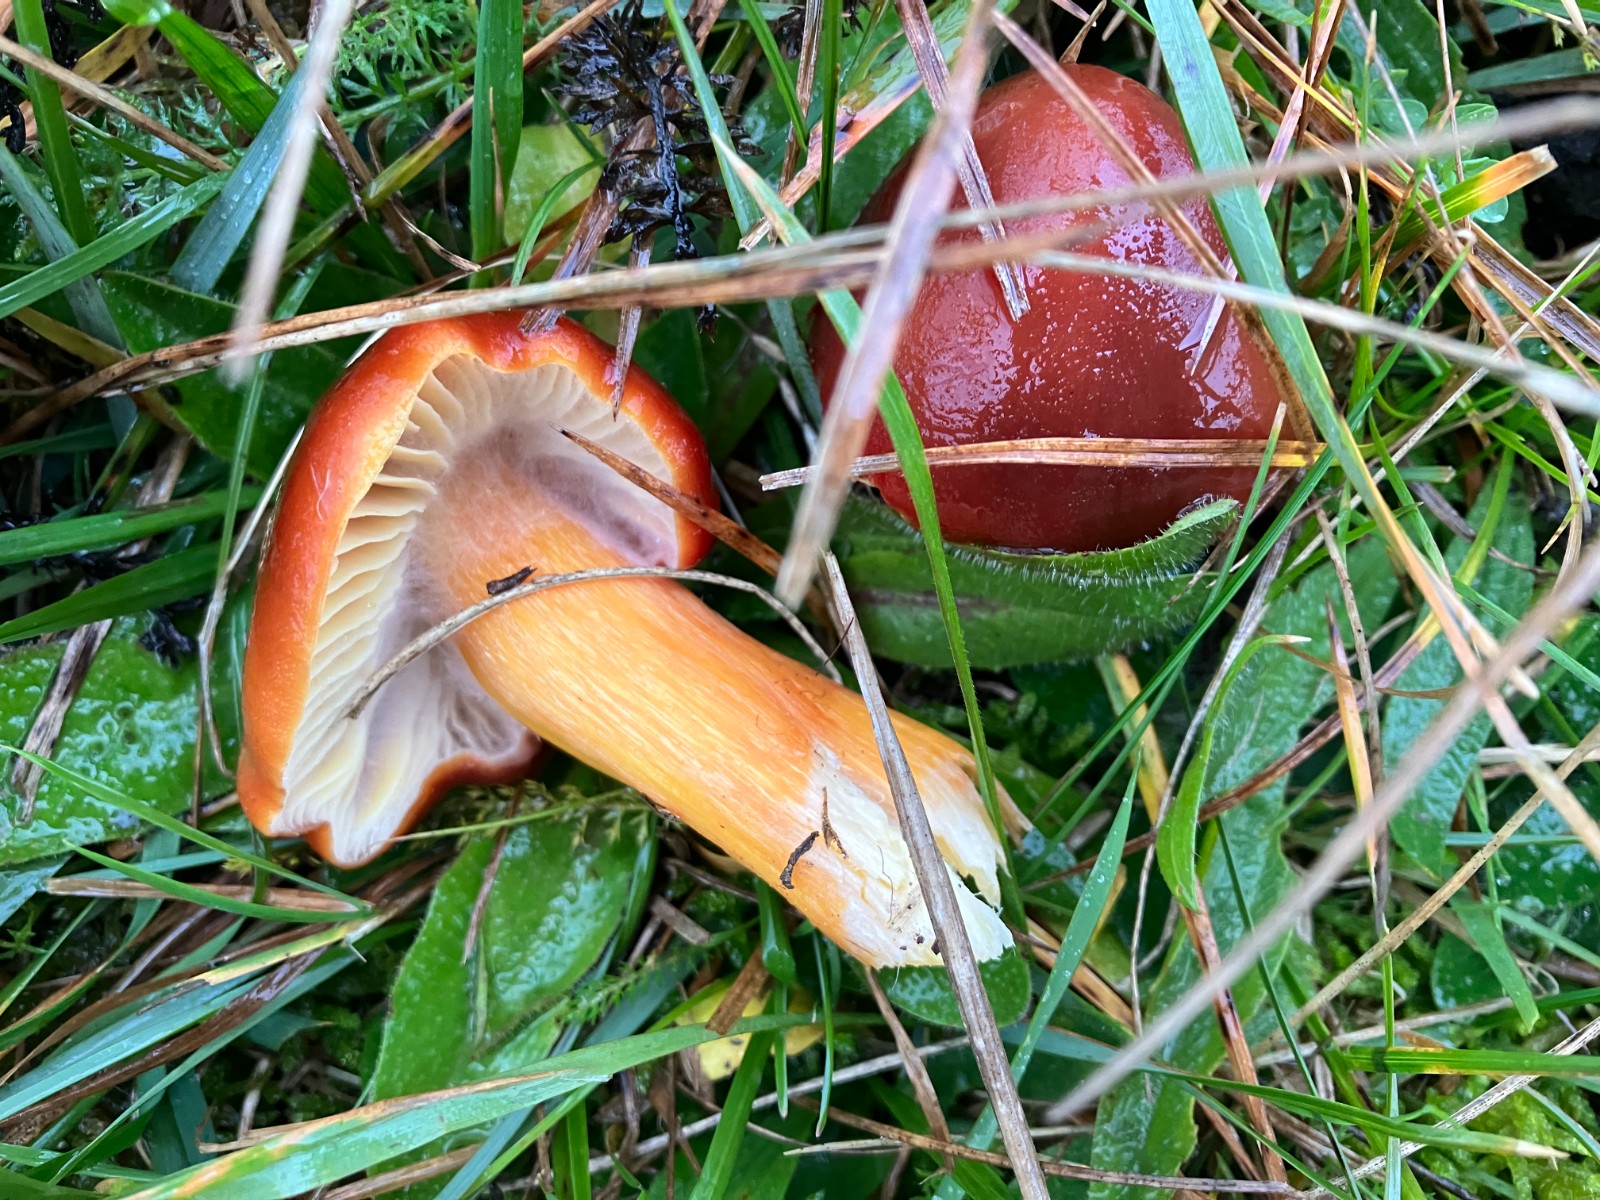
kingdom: Fungi
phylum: Basidiomycota
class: Agaricomycetes
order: Agaricales
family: Hygrophoraceae
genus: Hygrocybe
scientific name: Hygrocybe punicea
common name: skarlagen-vokshat
